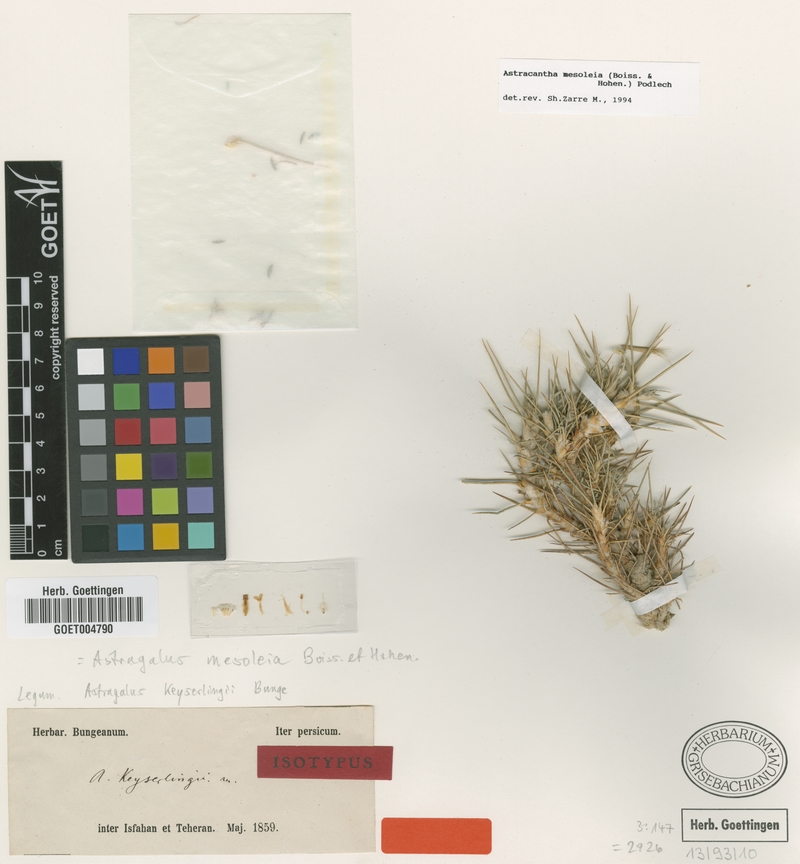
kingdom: Plantae
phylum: Tracheophyta
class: Magnoliopsida
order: Fabales
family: Fabaceae
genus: Astragalus
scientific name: Astragalus mesoleios
